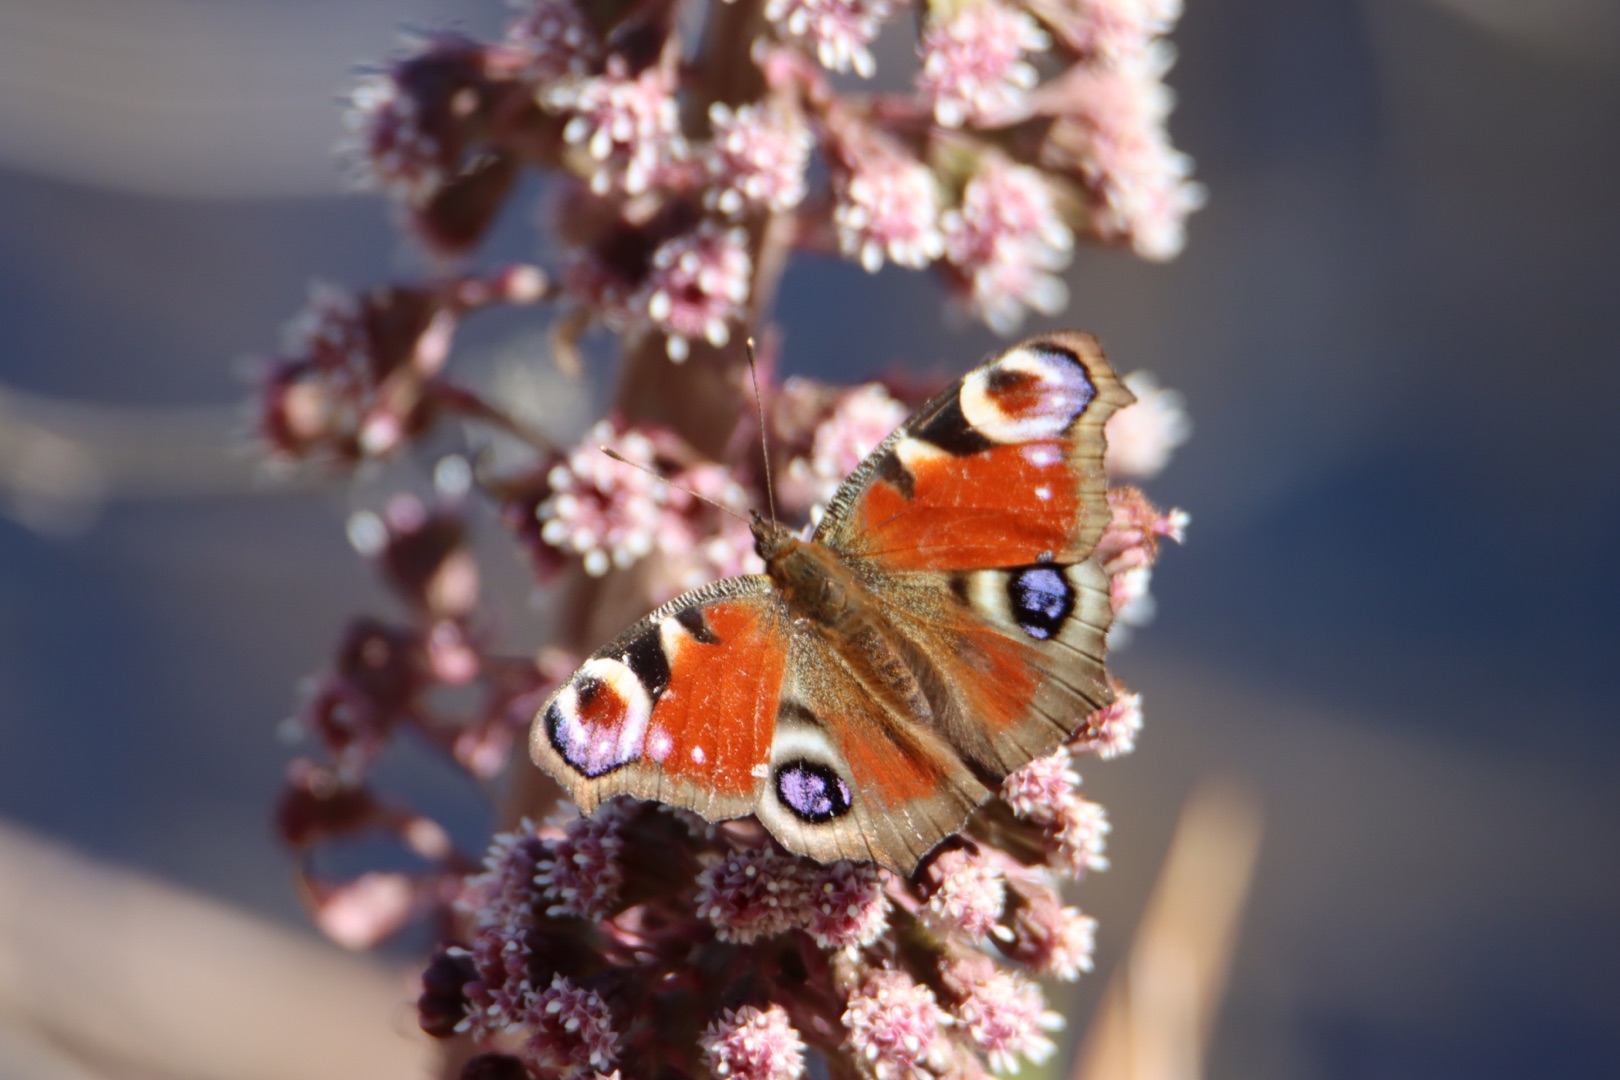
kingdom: Animalia
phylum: Arthropoda
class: Insecta
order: Lepidoptera
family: Nymphalidae
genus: Aglais
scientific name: Aglais io
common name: Dagpåfugleøje
